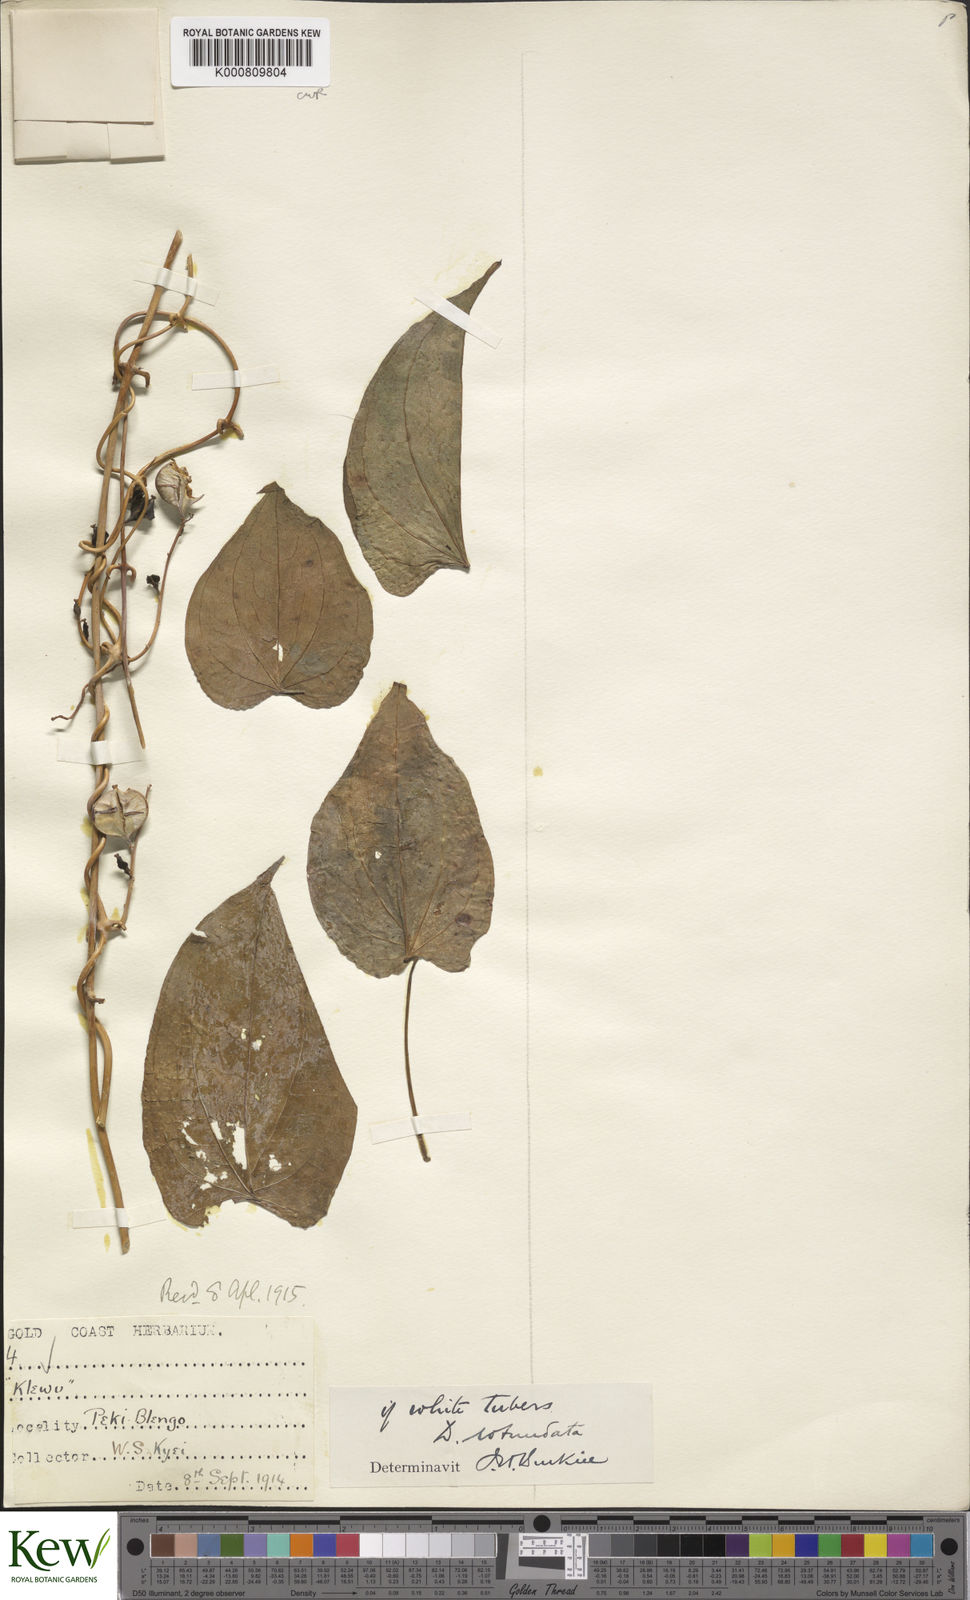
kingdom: Plantae
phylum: Tracheophyta
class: Liliopsida
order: Dioscoreales
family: Dioscoreaceae
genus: Dioscorea
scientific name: Dioscorea cayenensis
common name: Attoto yam
